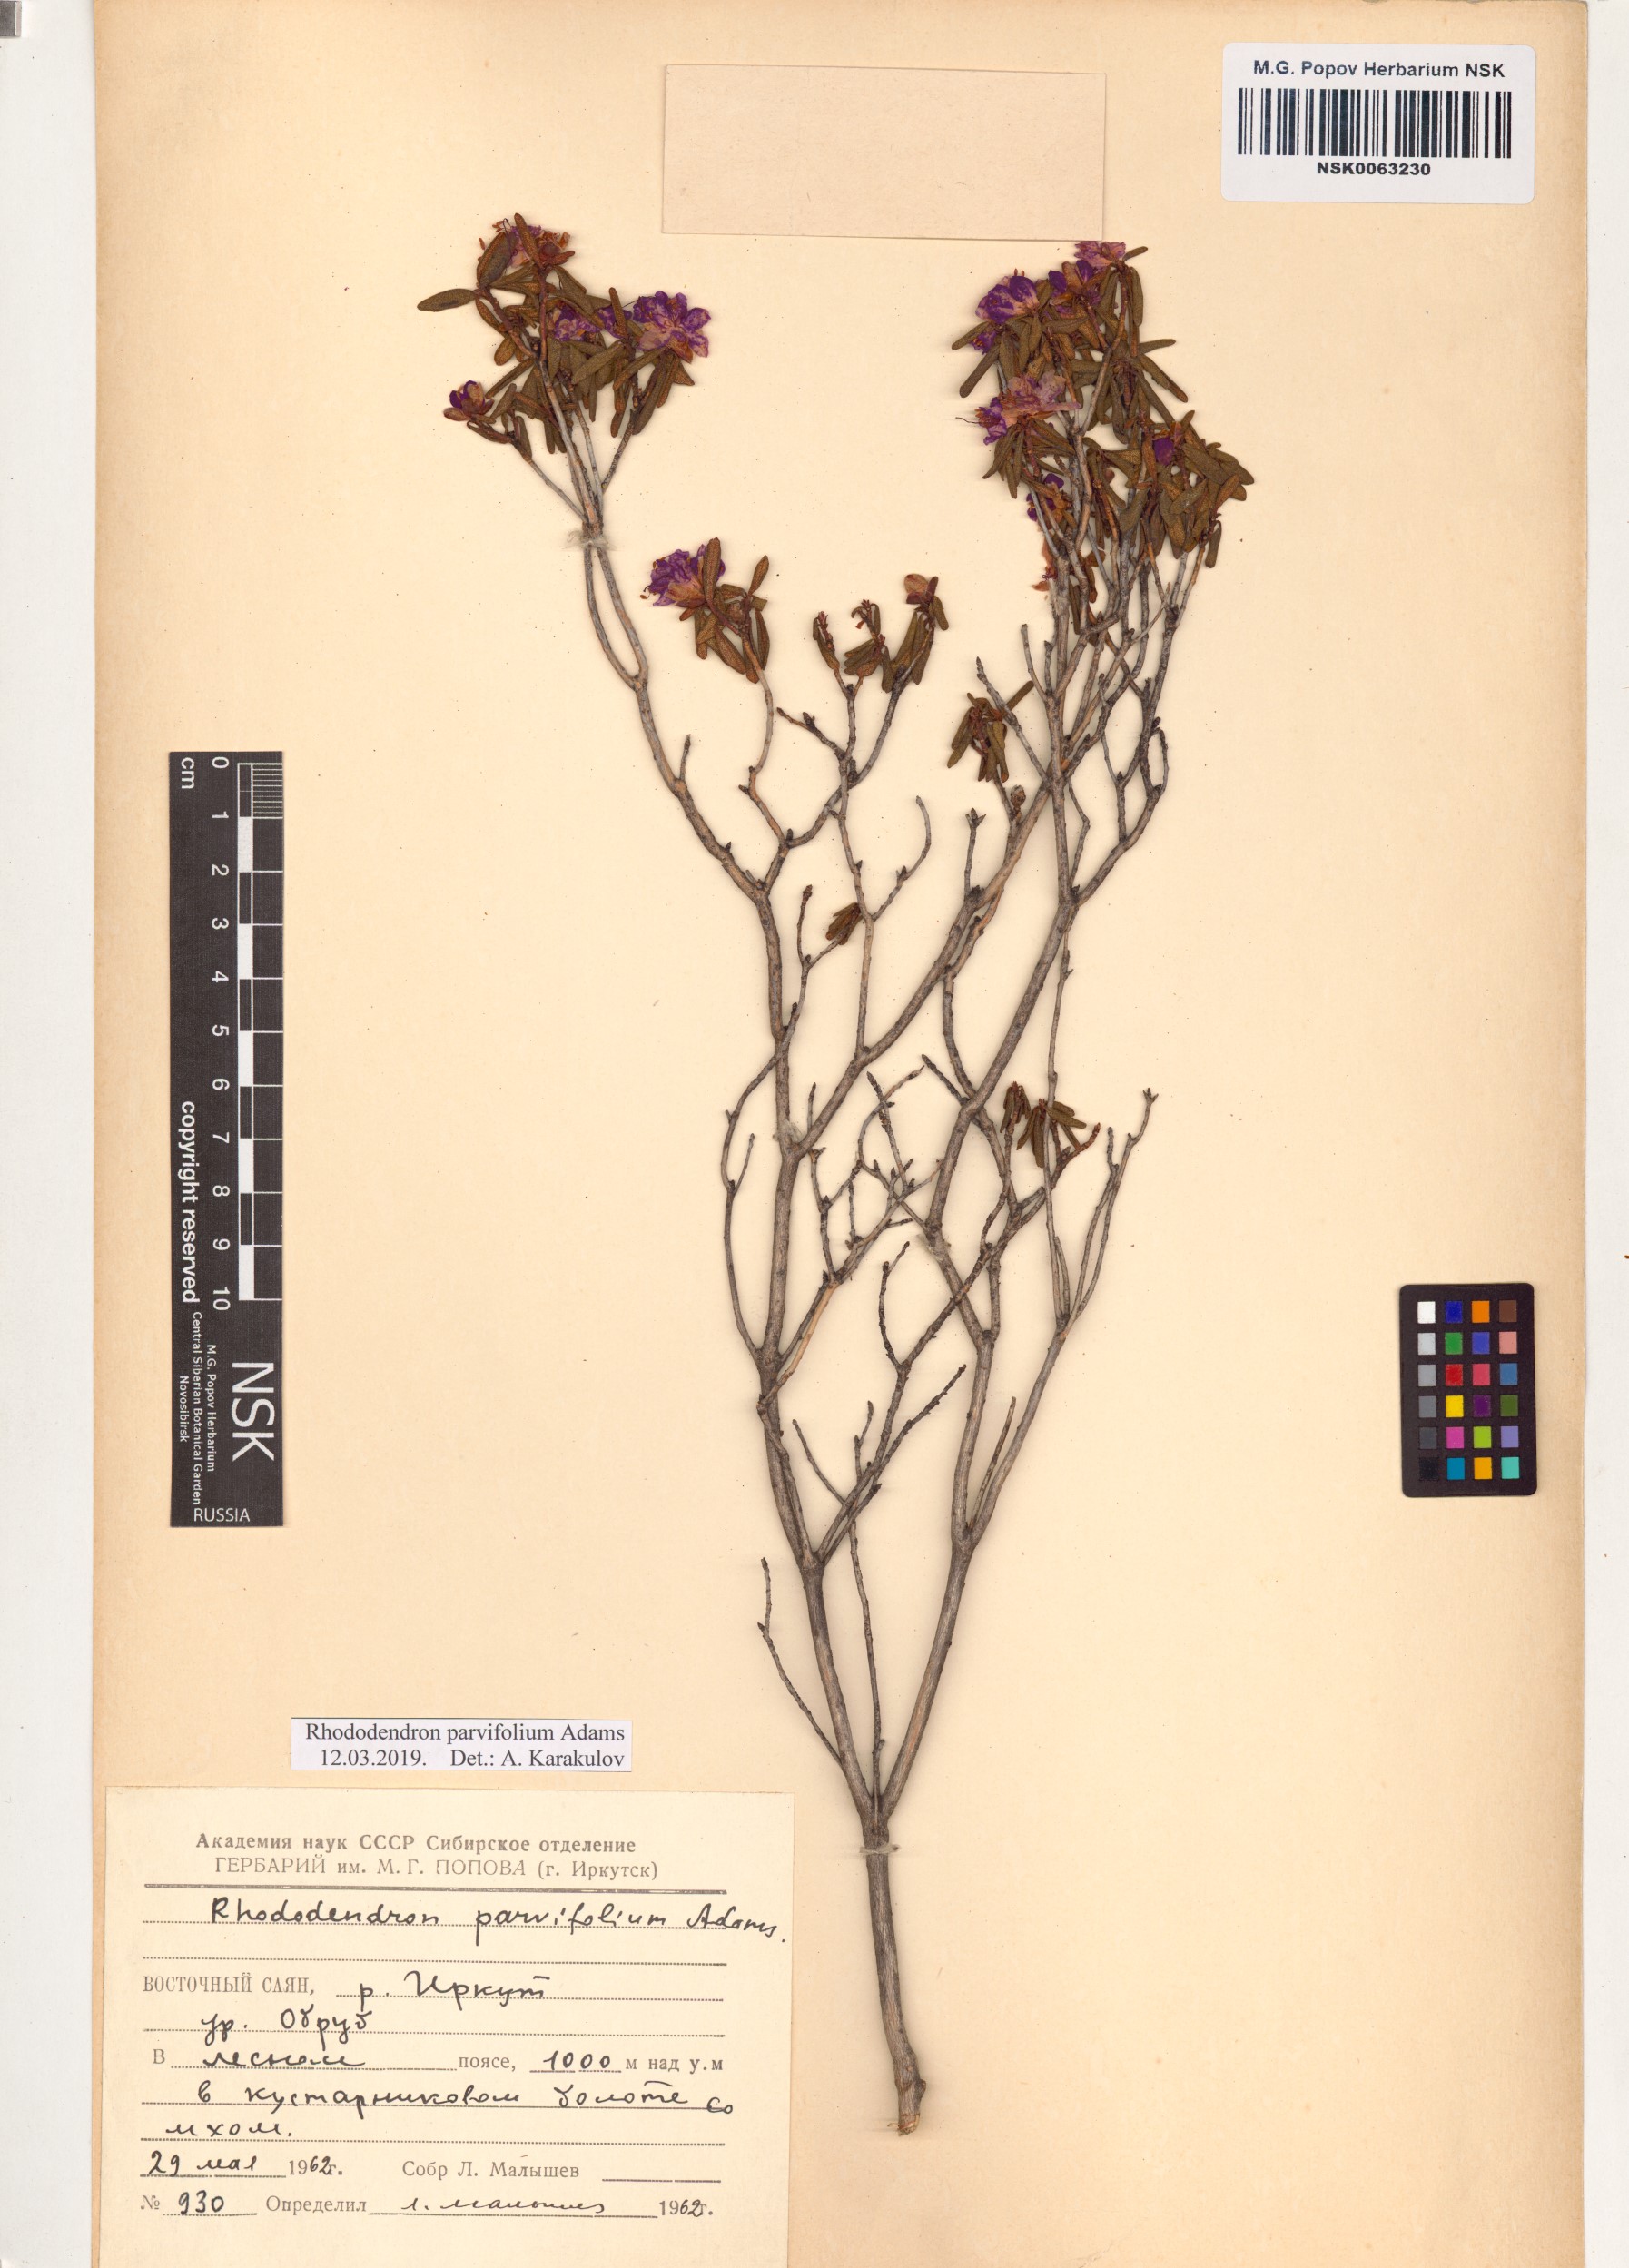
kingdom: Plantae
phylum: Tracheophyta
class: Magnoliopsida
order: Ericales
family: Ericaceae
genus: Rhododendron
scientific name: Rhododendron parvifolium
